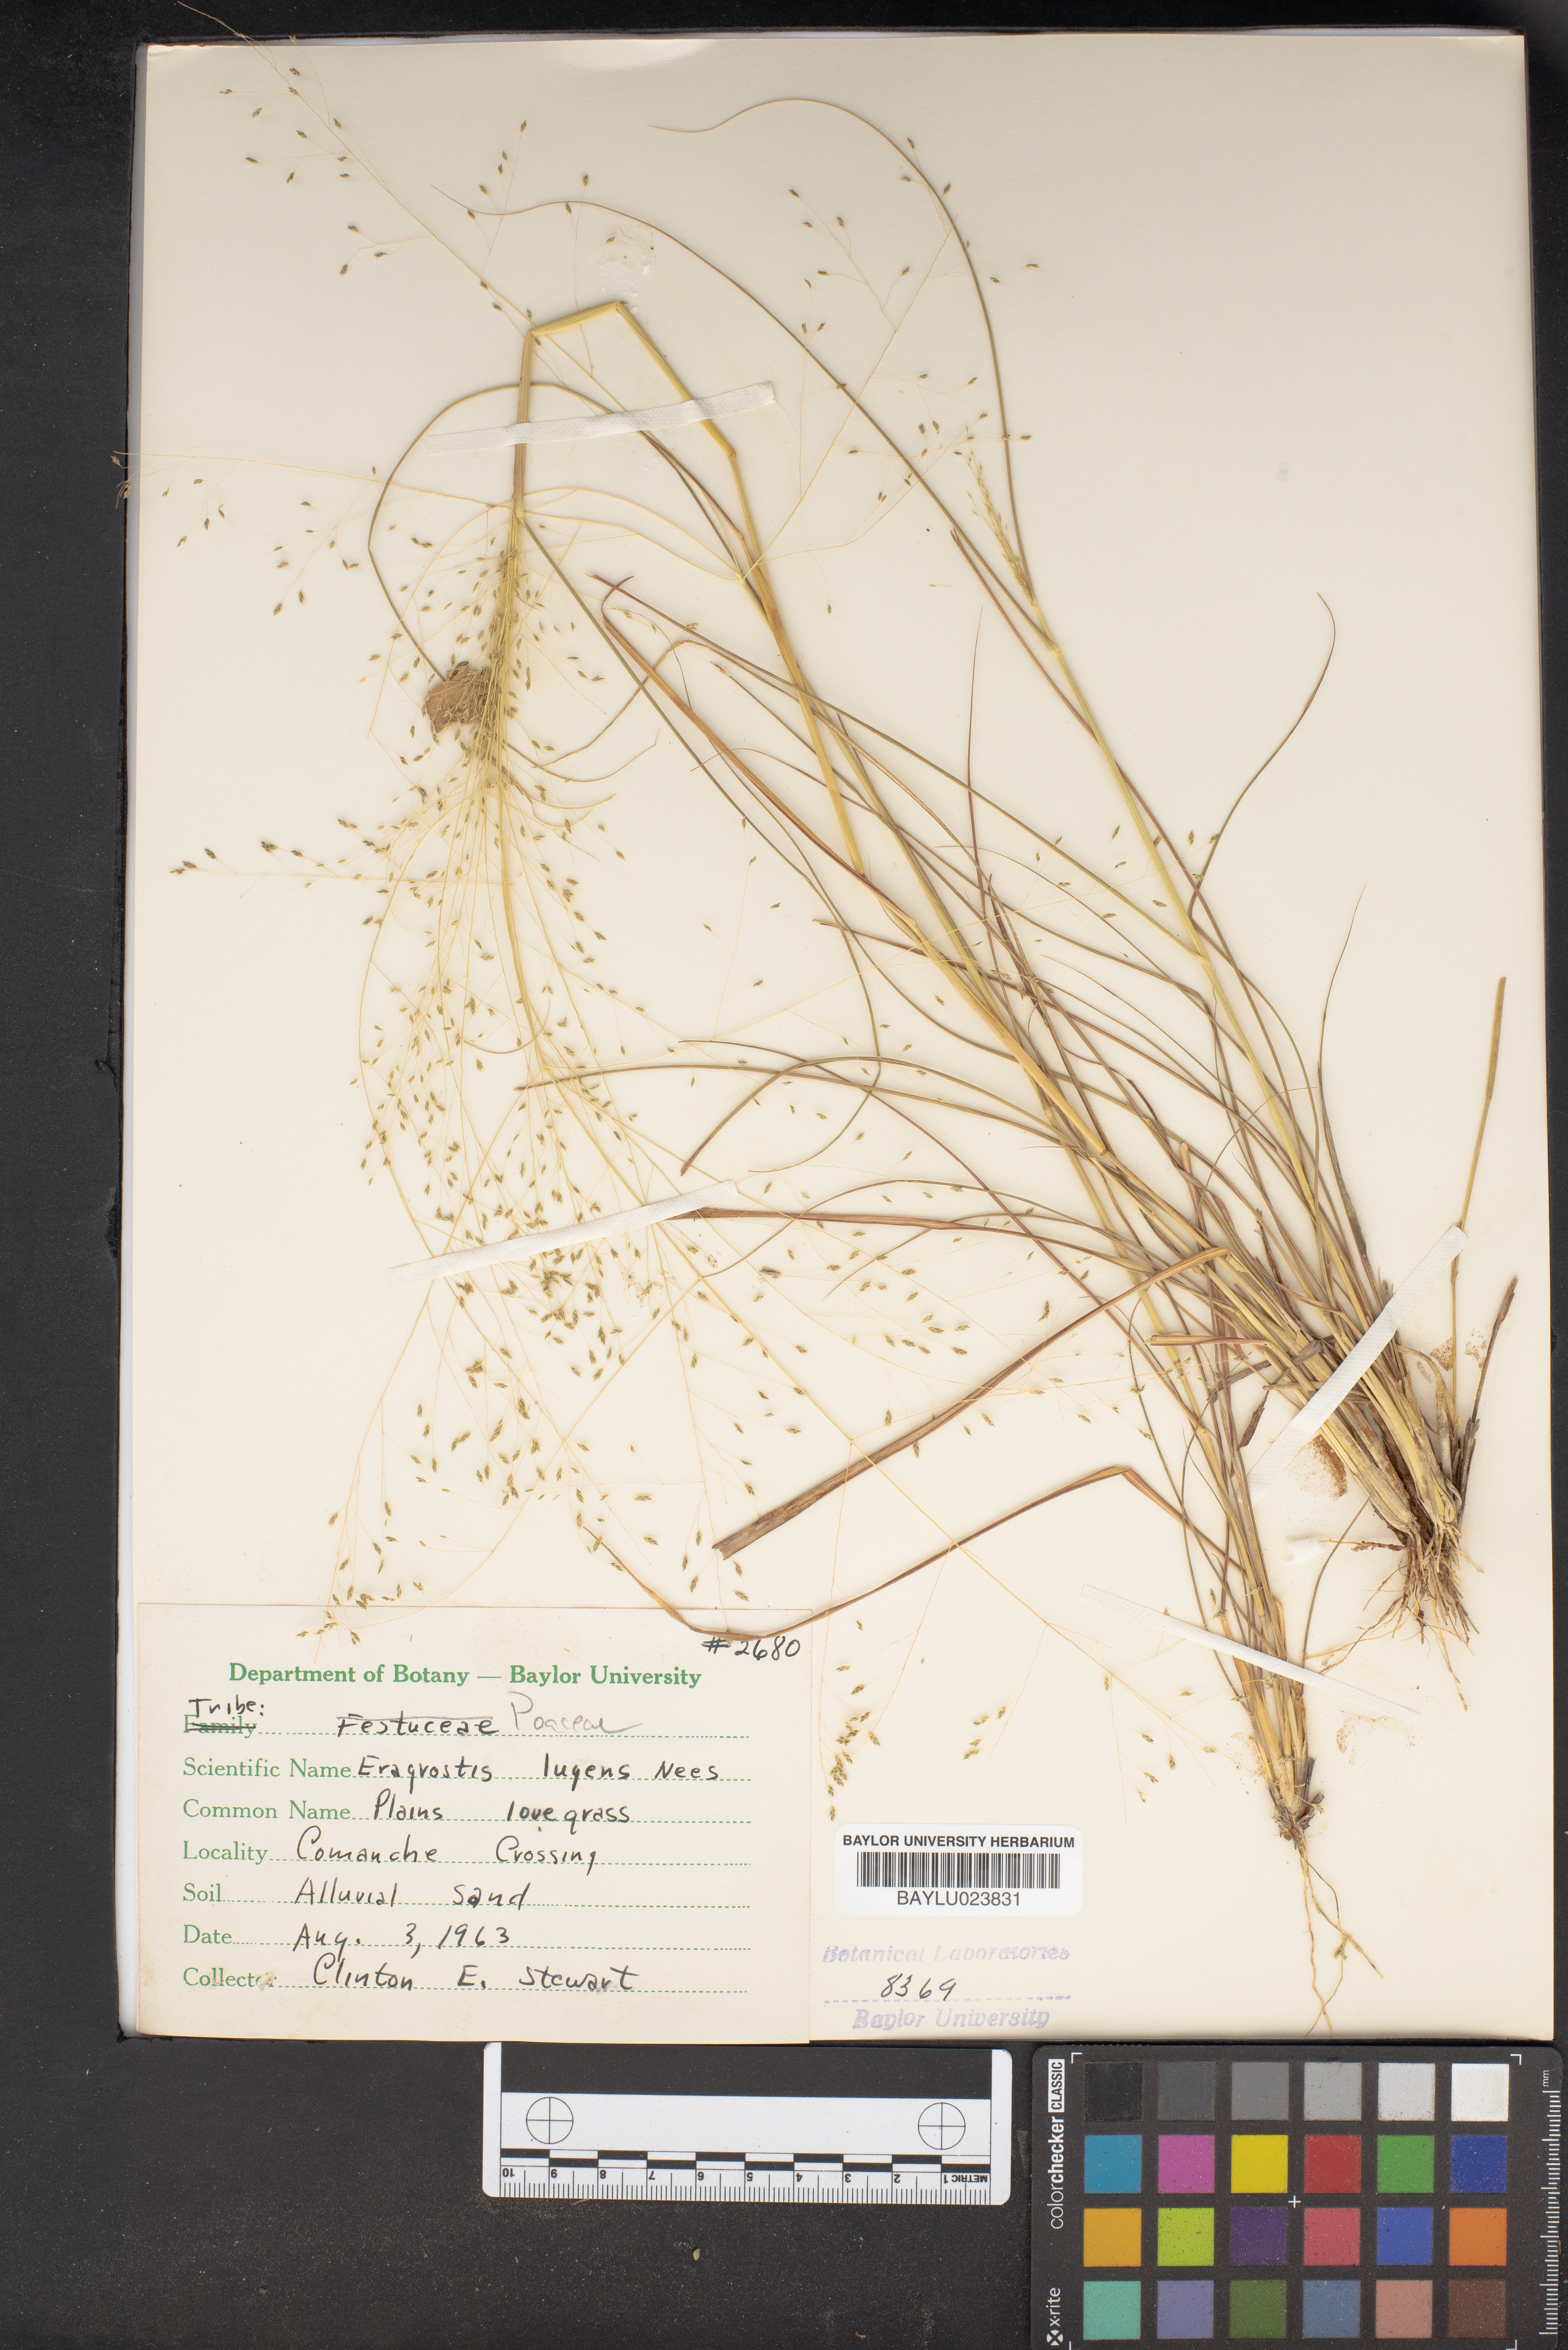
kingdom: Plantae
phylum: Tracheophyta
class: Liliopsida
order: Poales
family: Poaceae
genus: Eragrostis
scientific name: Eragrostis capillaris
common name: Hair-like lovegrass
